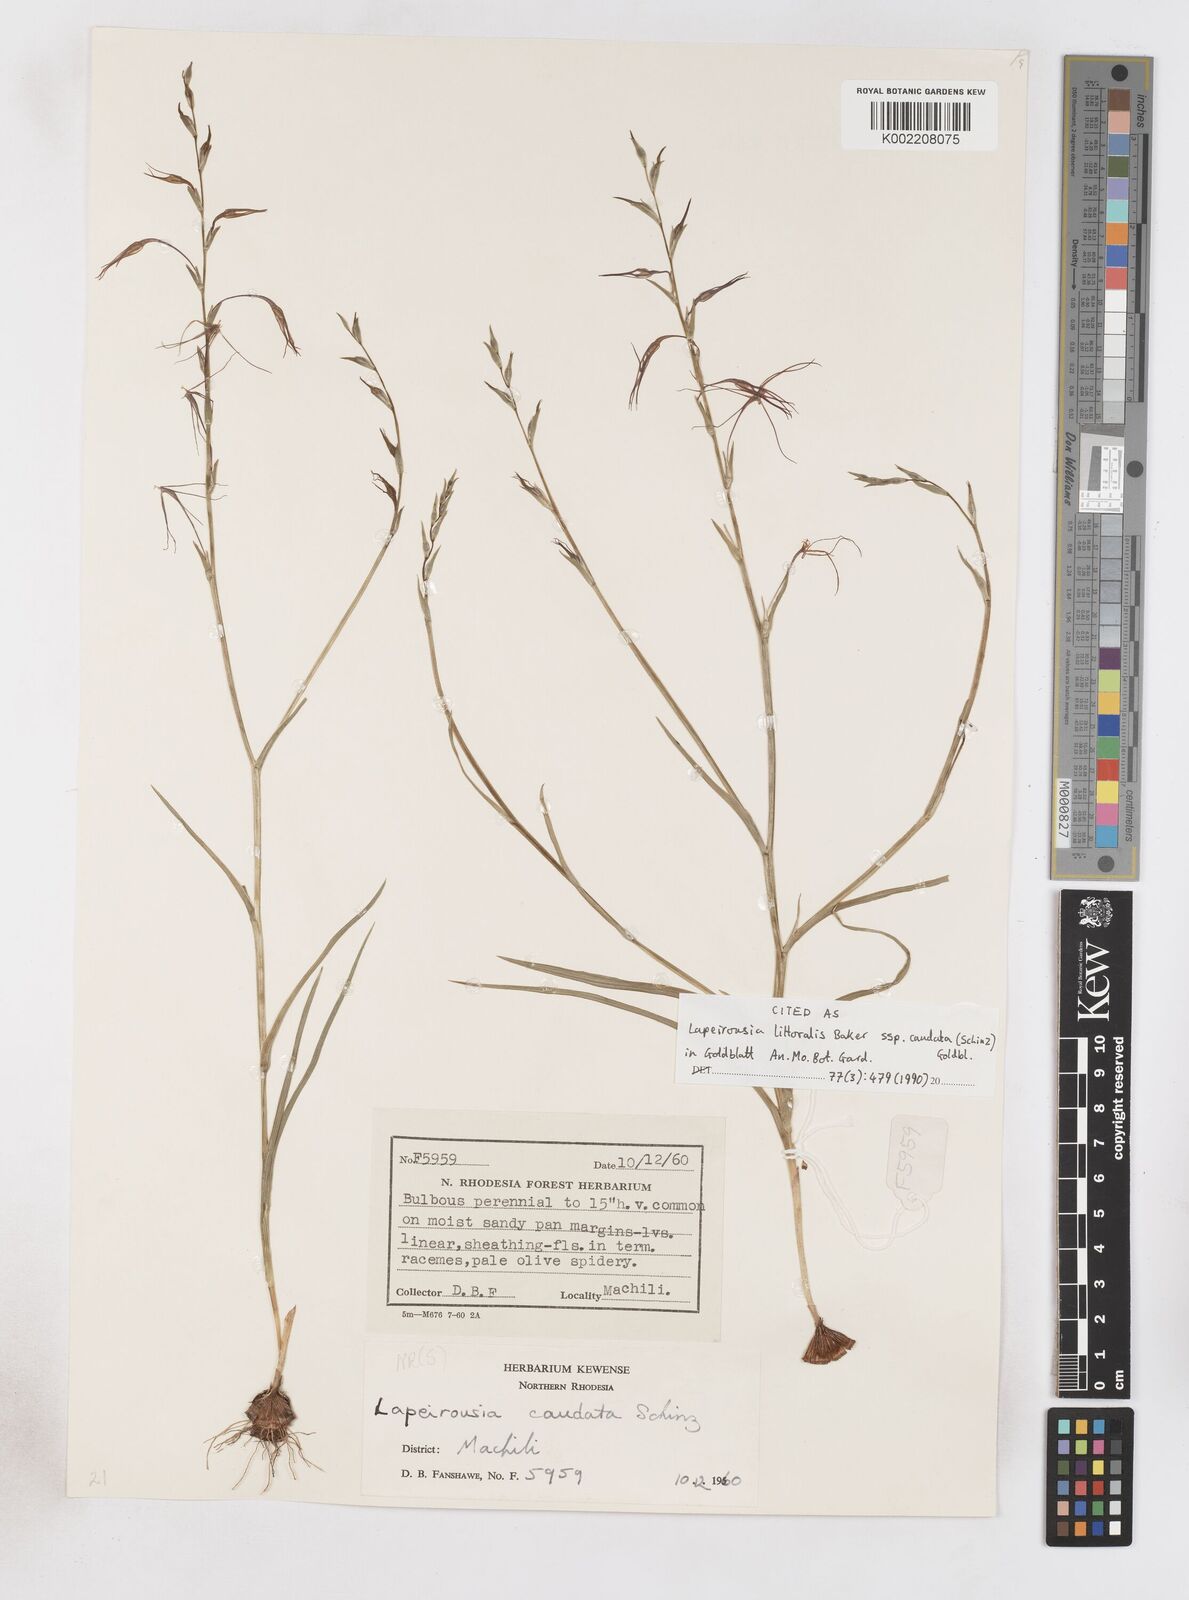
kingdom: Plantae
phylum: Tracheophyta
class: Liliopsida
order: Asparagales
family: Iridaceae
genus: Lapeirousia
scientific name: Lapeirousia caudata
